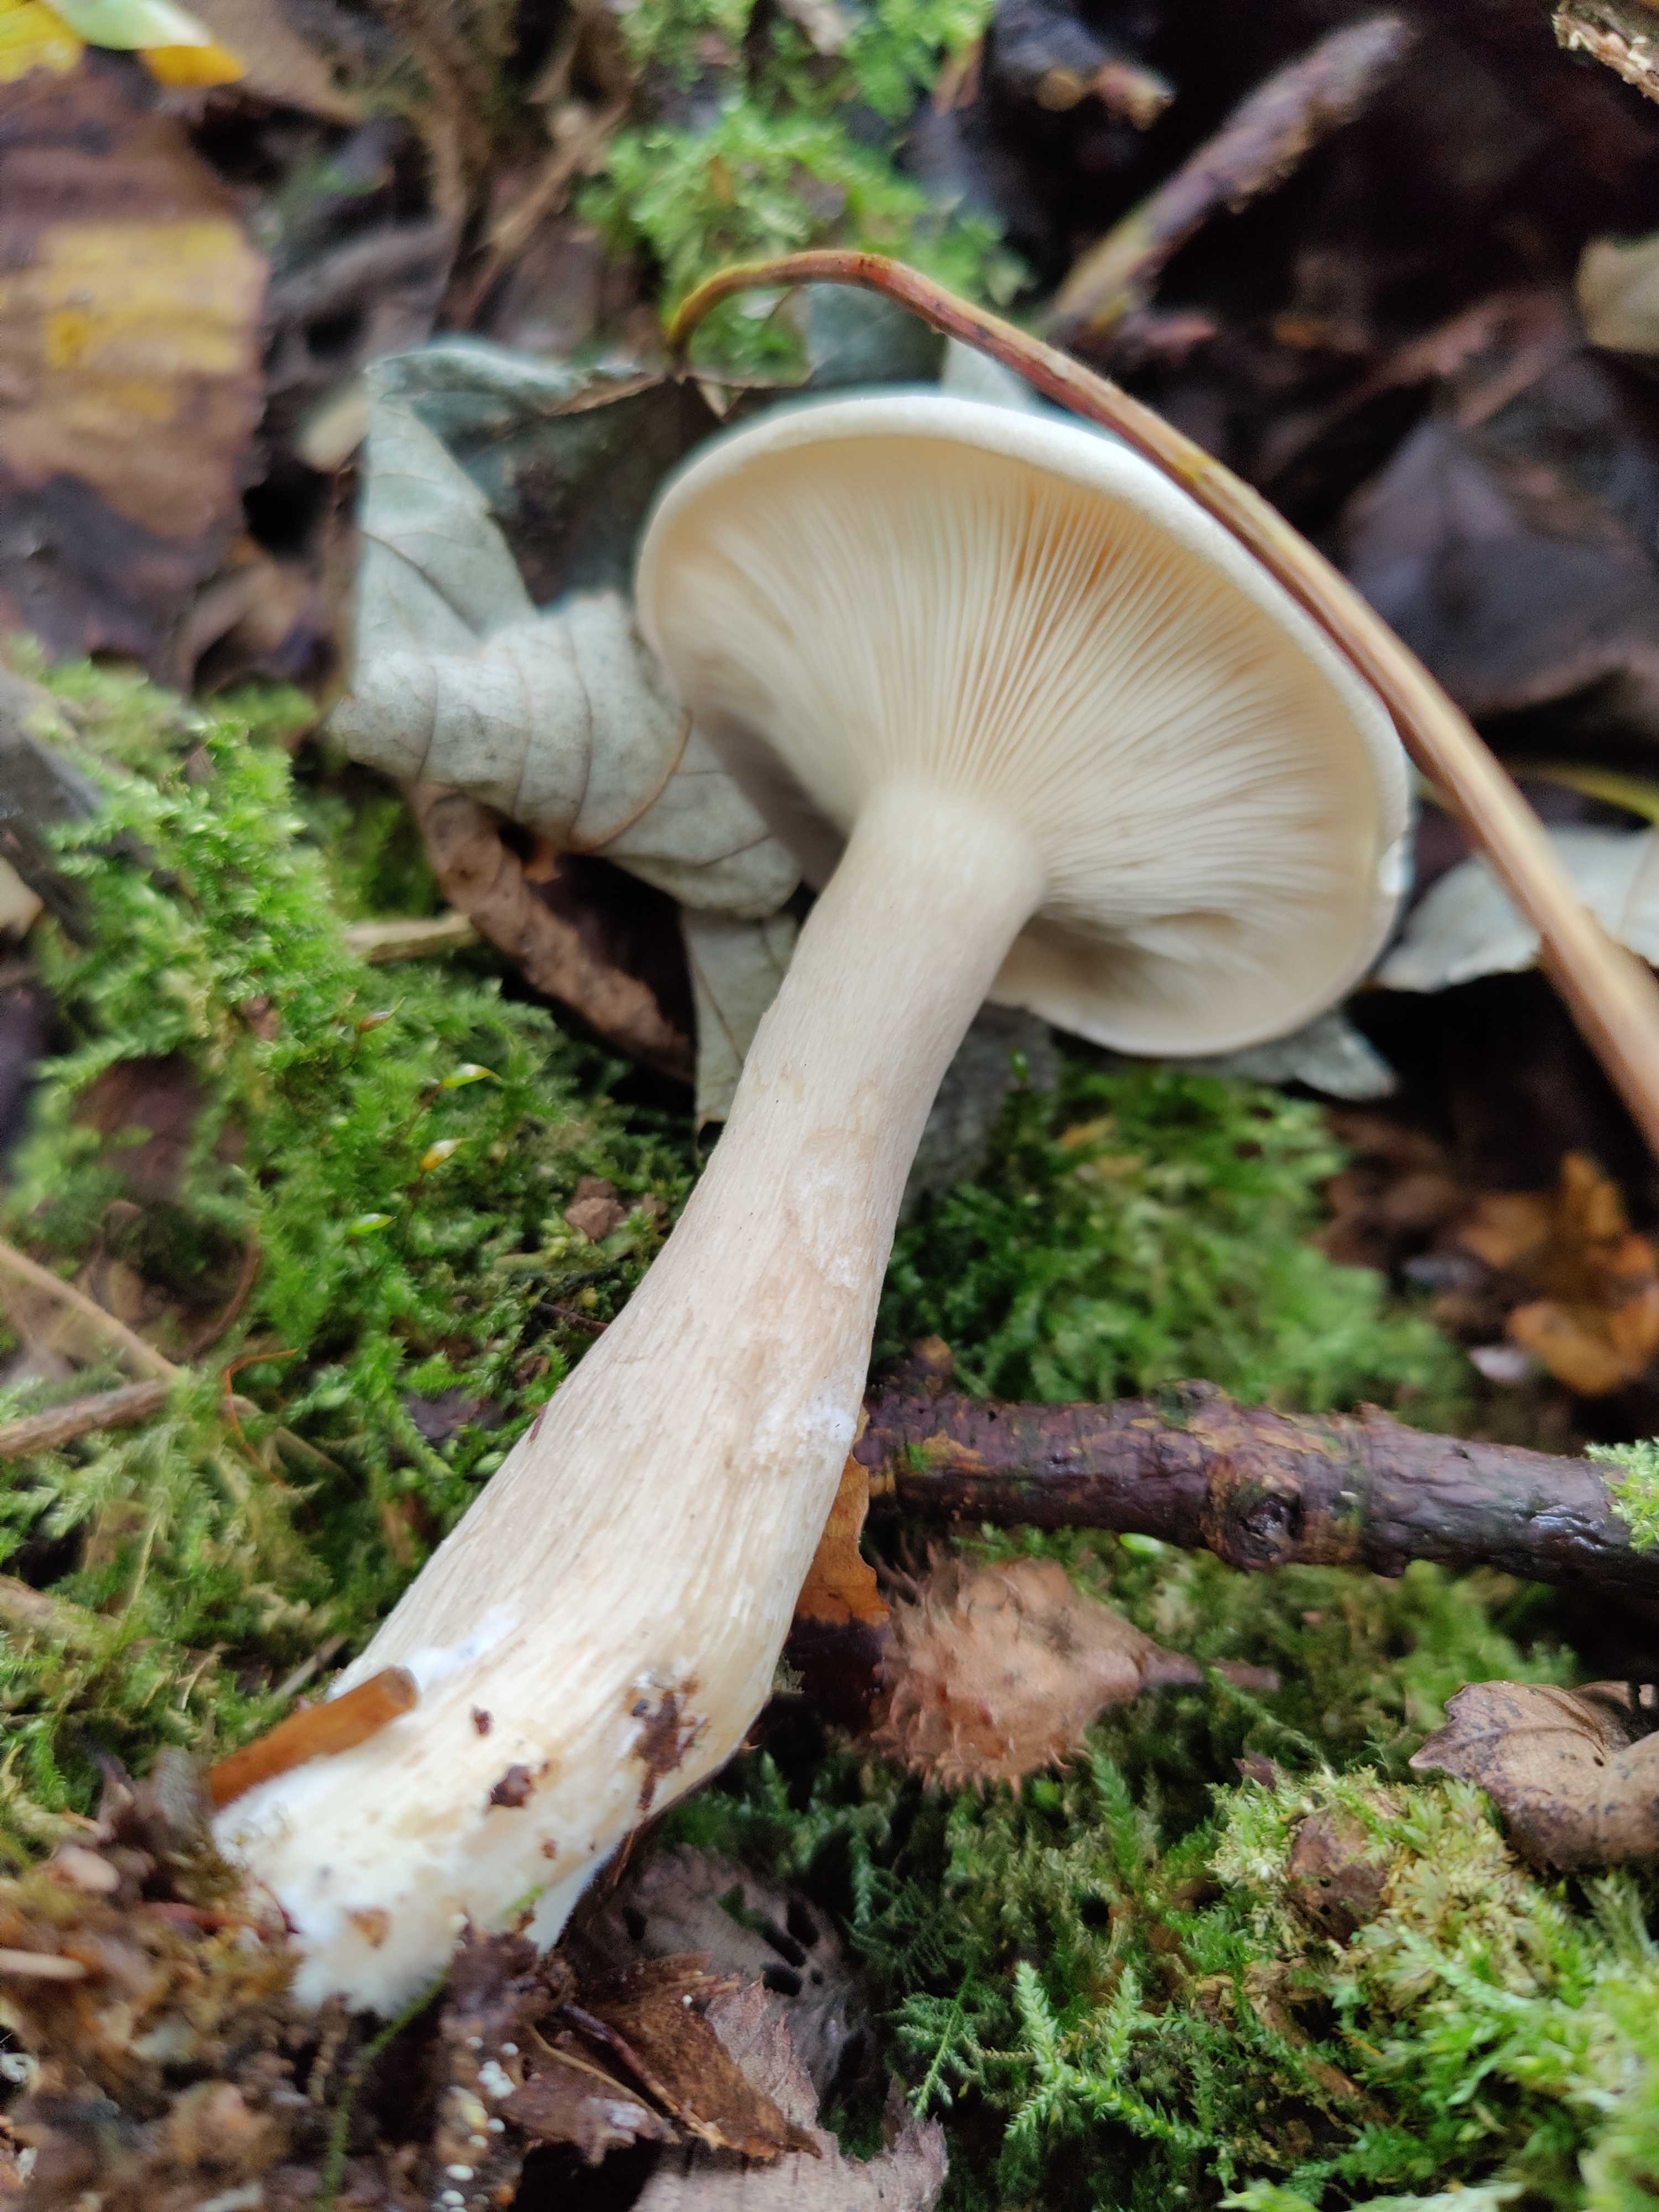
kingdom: Fungi
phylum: Basidiomycota
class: Agaricomycetes
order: Agaricales
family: Tricholomataceae
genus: Clitocybe
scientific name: Clitocybe nebularis
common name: tåge-tragthat
